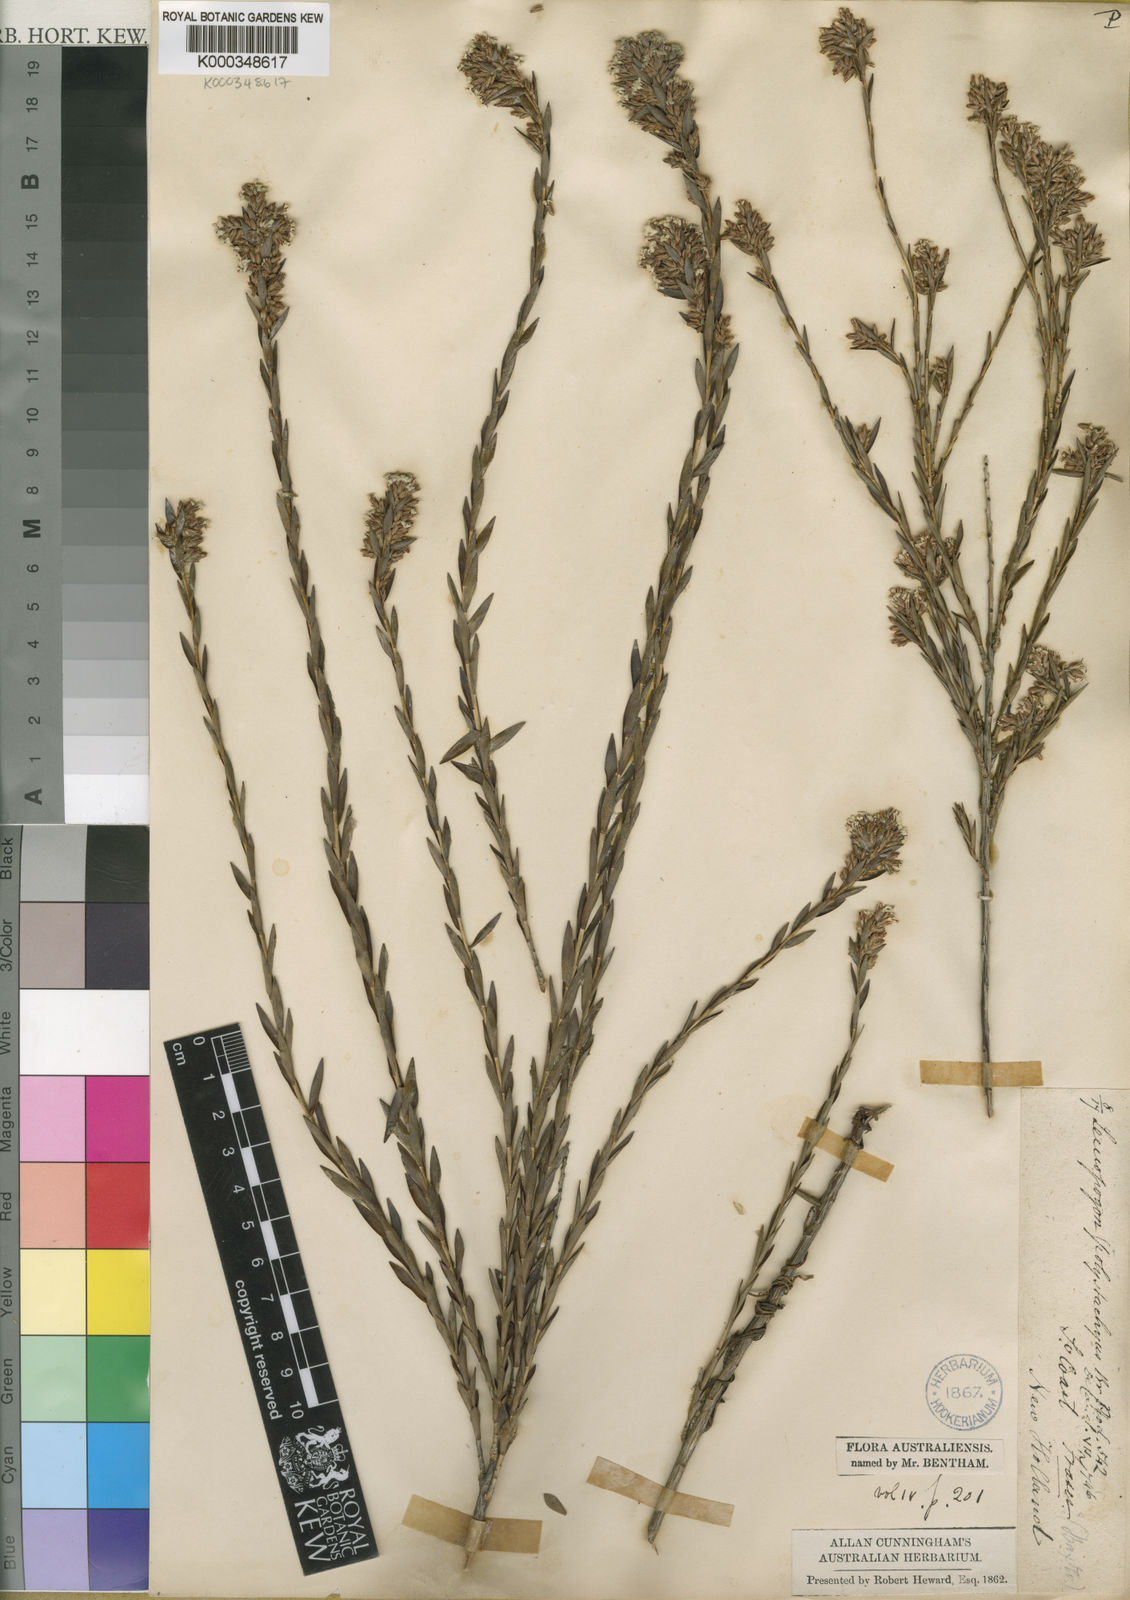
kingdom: Plantae
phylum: Tracheophyta
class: Magnoliopsida
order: Ericales
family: Ericaceae
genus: Leucopogon
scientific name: Leucopogon polystachyus
